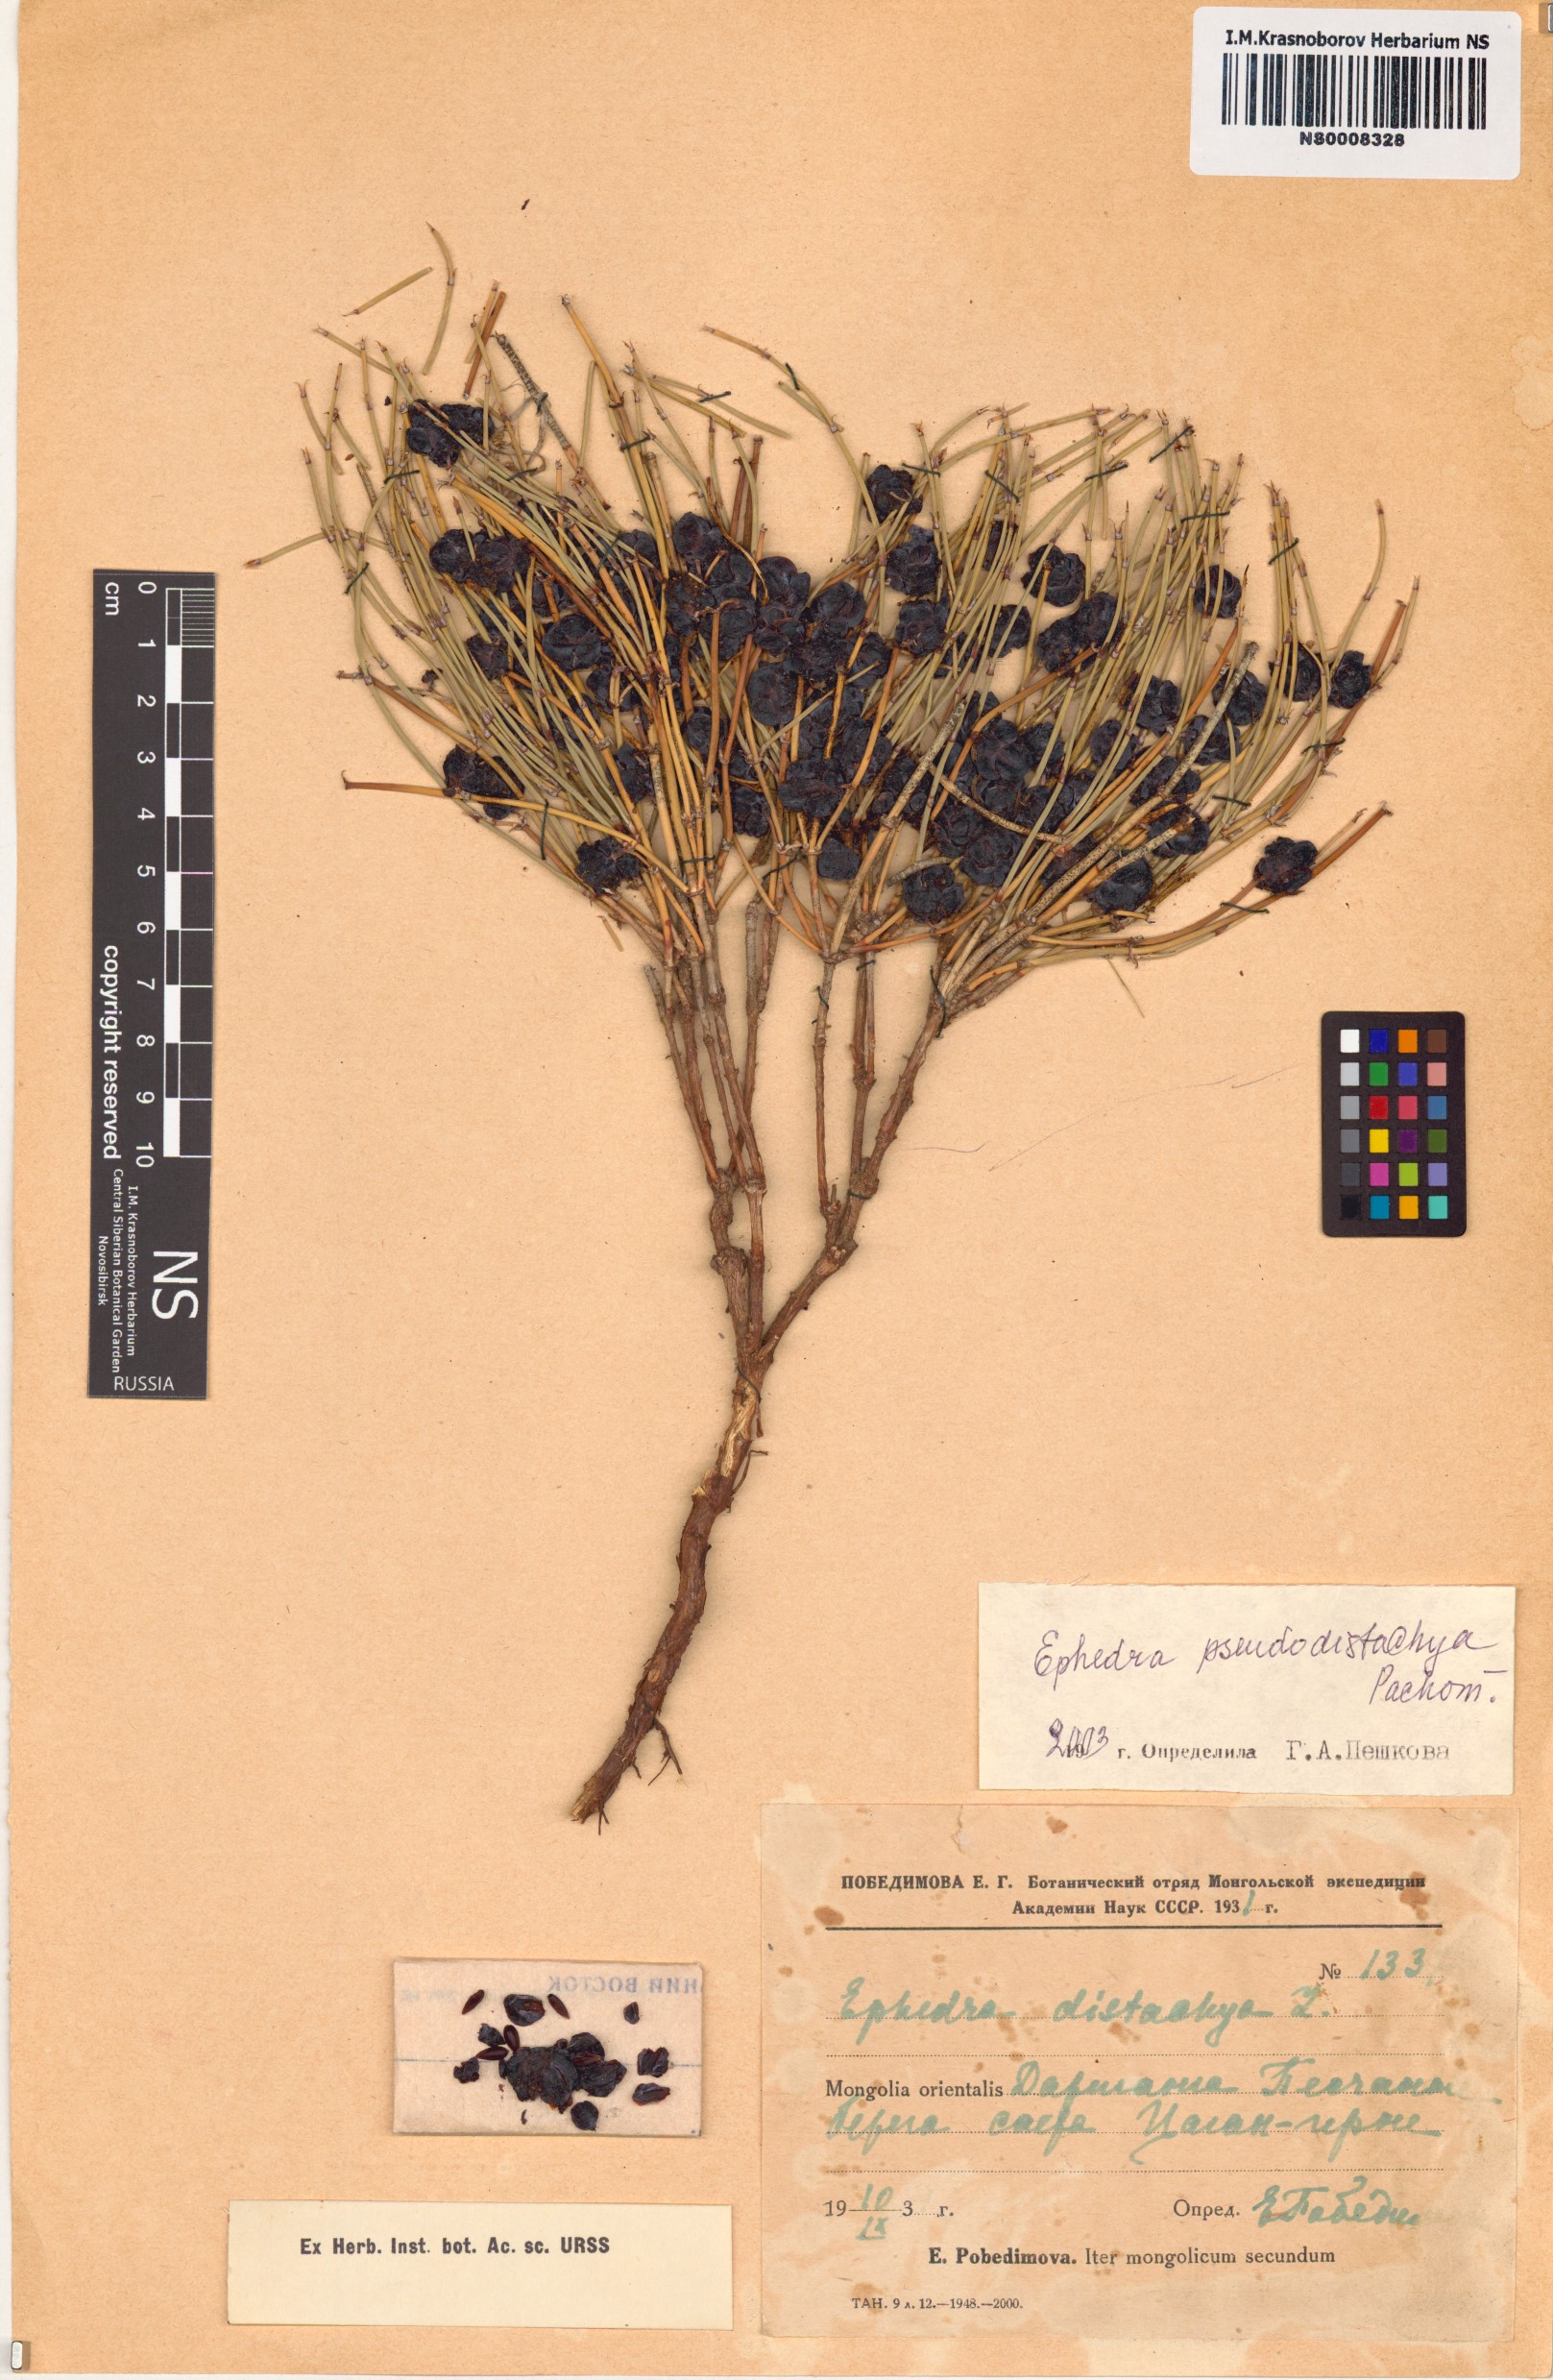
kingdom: Plantae
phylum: Tracheophyta
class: Gnetopsida
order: Ephedrales
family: Ephedraceae
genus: Ephedra
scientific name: Ephedra pseudodistachya
